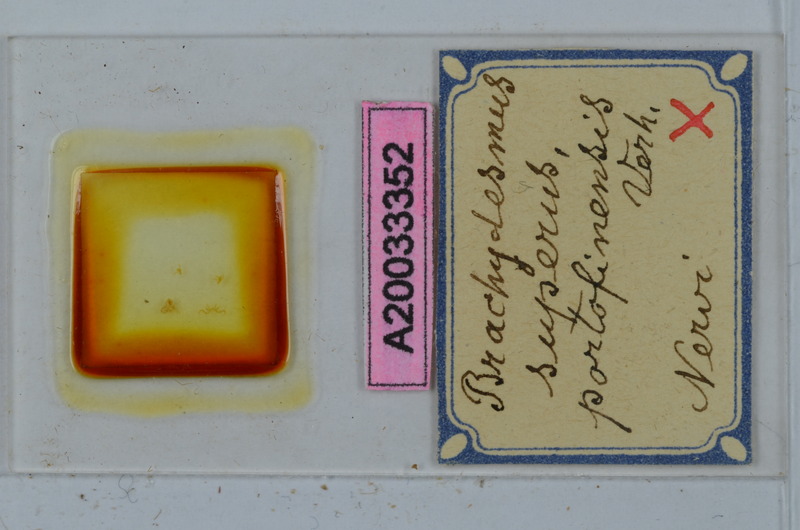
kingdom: Animalia
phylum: Arthropoda
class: Diplopoda
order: Polydesmida
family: Polydesmidae
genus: Brachydesmus
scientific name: Brachydesmus superus
